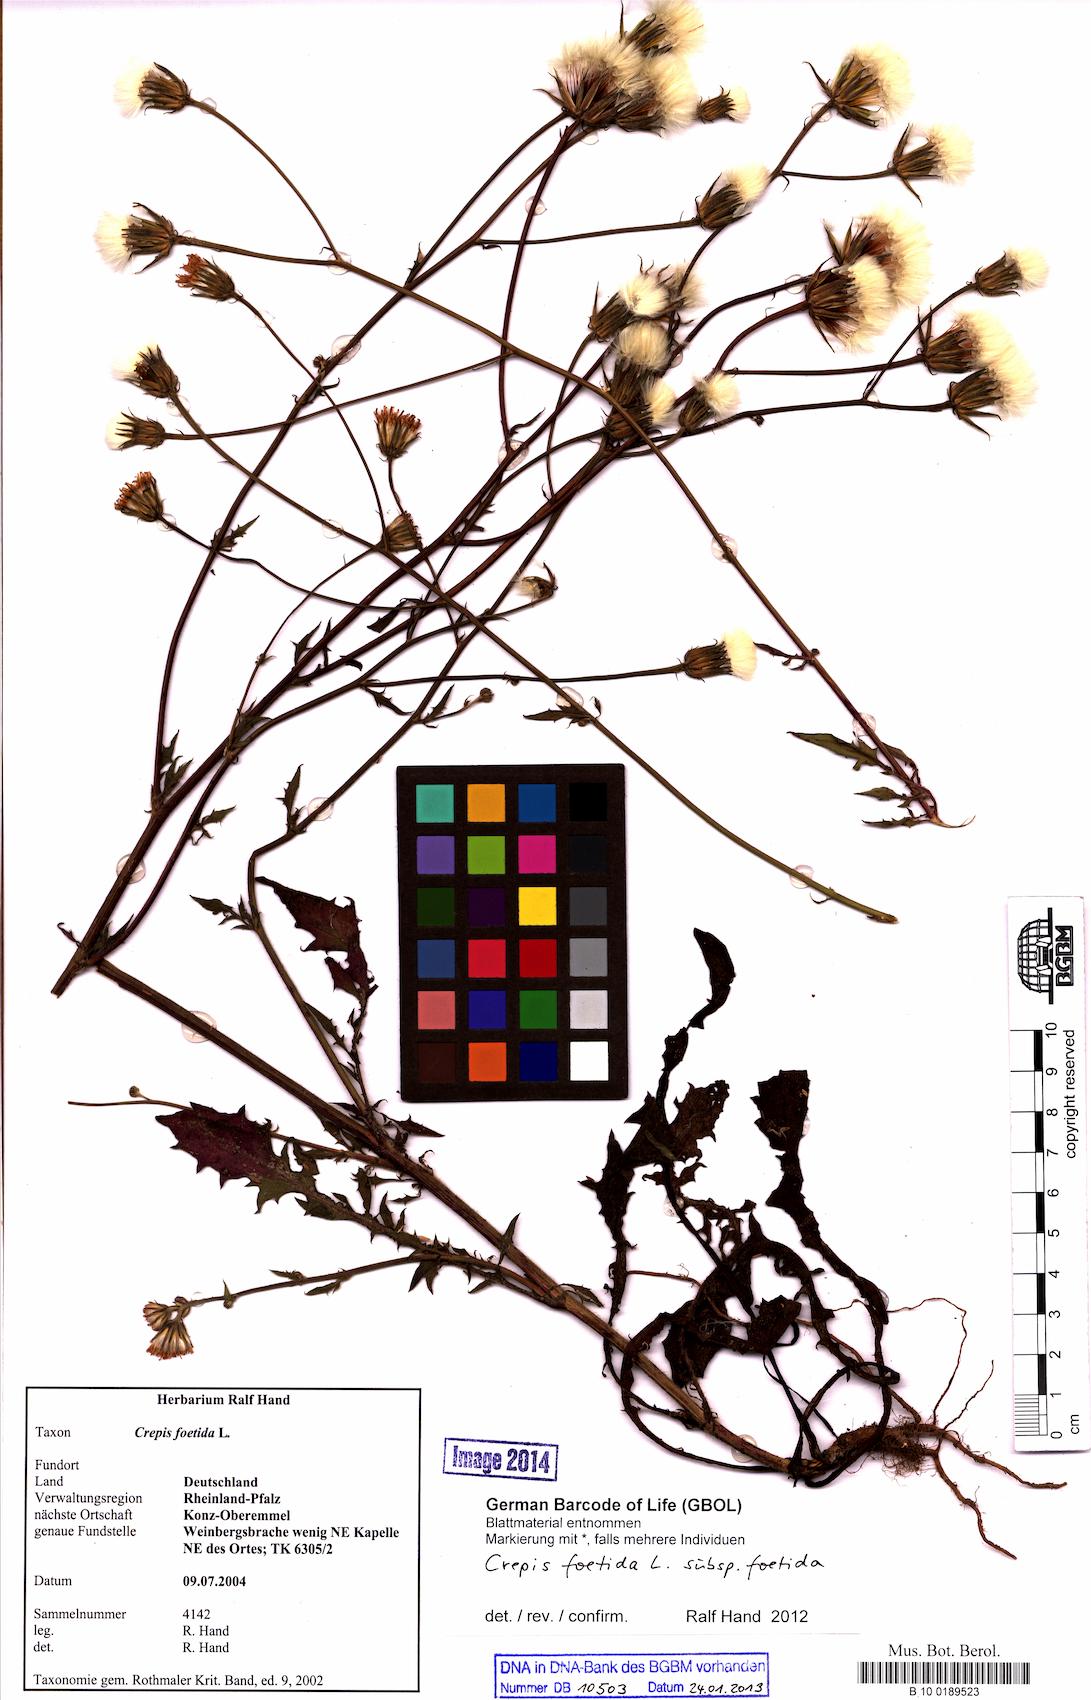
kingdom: Plantae
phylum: Tracheophyta
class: Magnoliopsida
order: Asterales
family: Asteraceae
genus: Crepis
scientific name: Crepis foetida
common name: Stinking hawk's-beard
